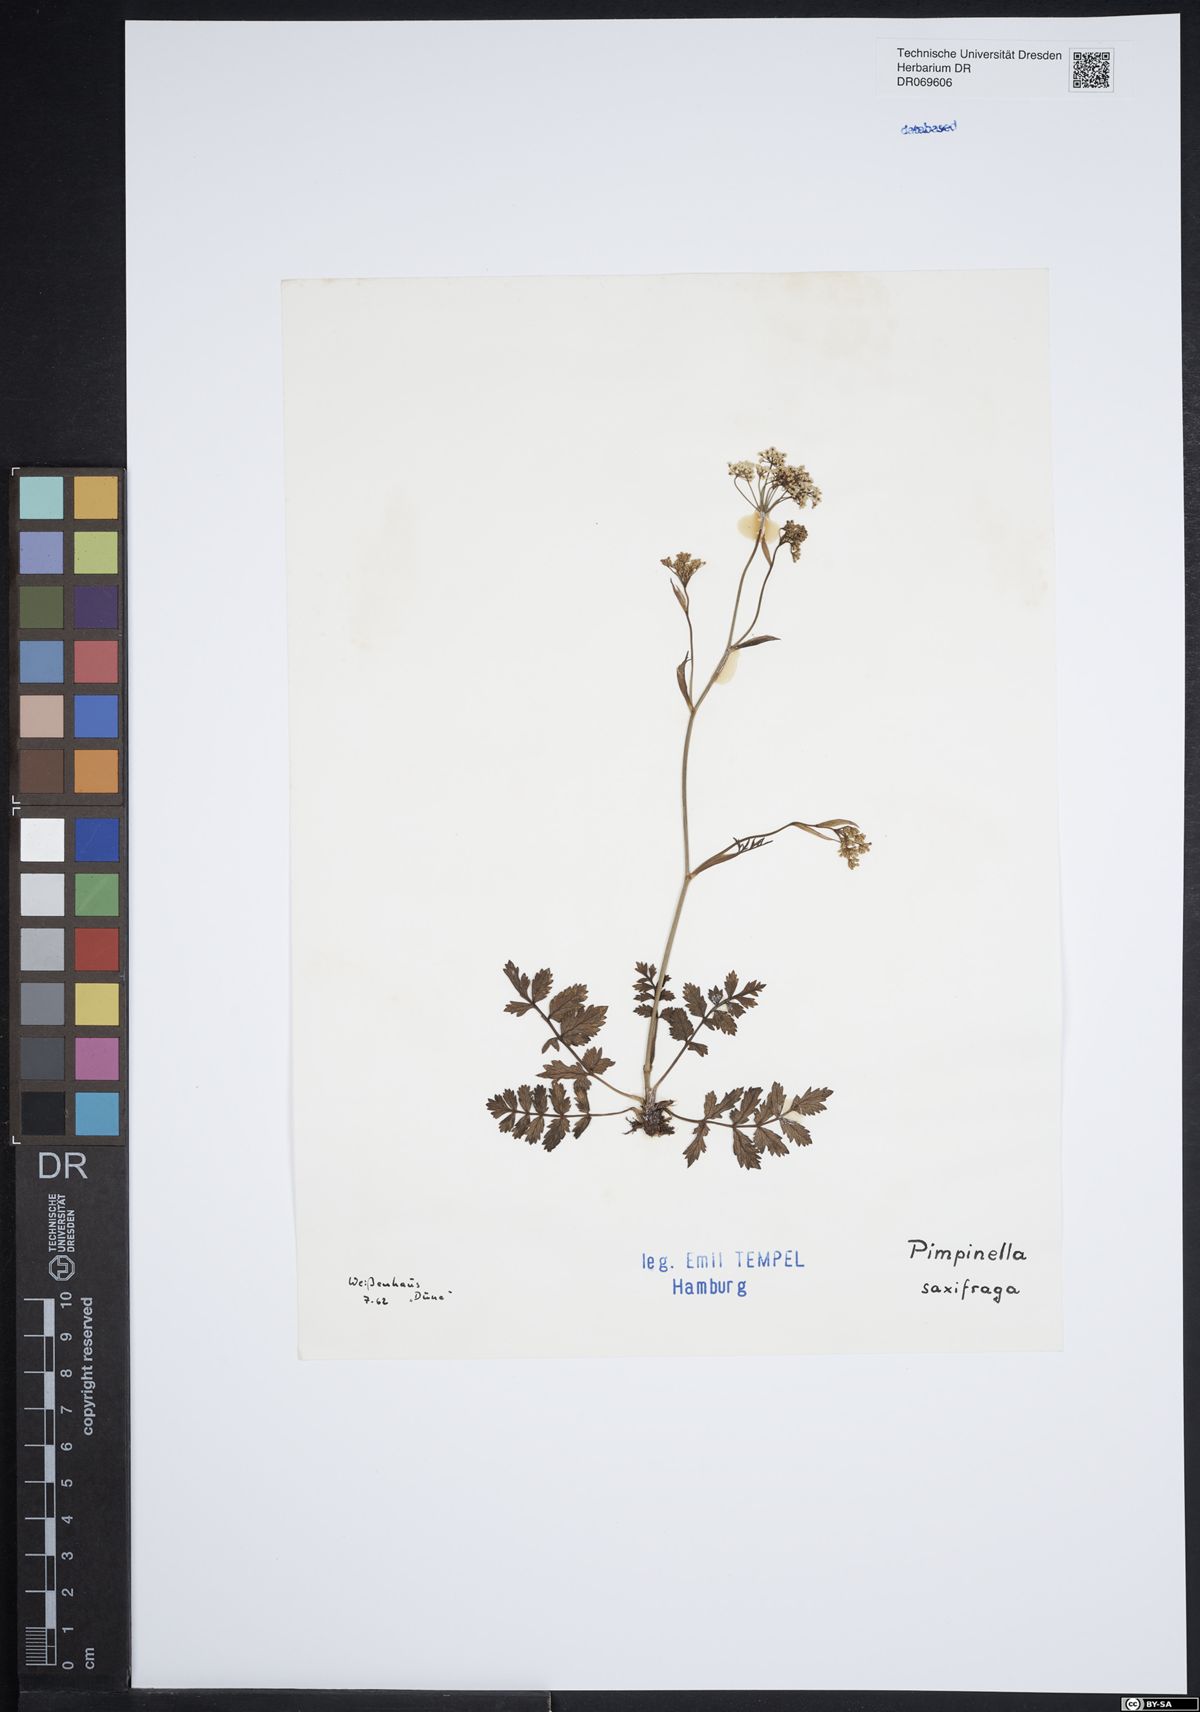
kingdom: Plantae
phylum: Tracheophyta
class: Magnoliopsida
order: Apiales
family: Apiaceae
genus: Pimpinella
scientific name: Pimpinella saxifraga
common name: Burnet-saxifrage
